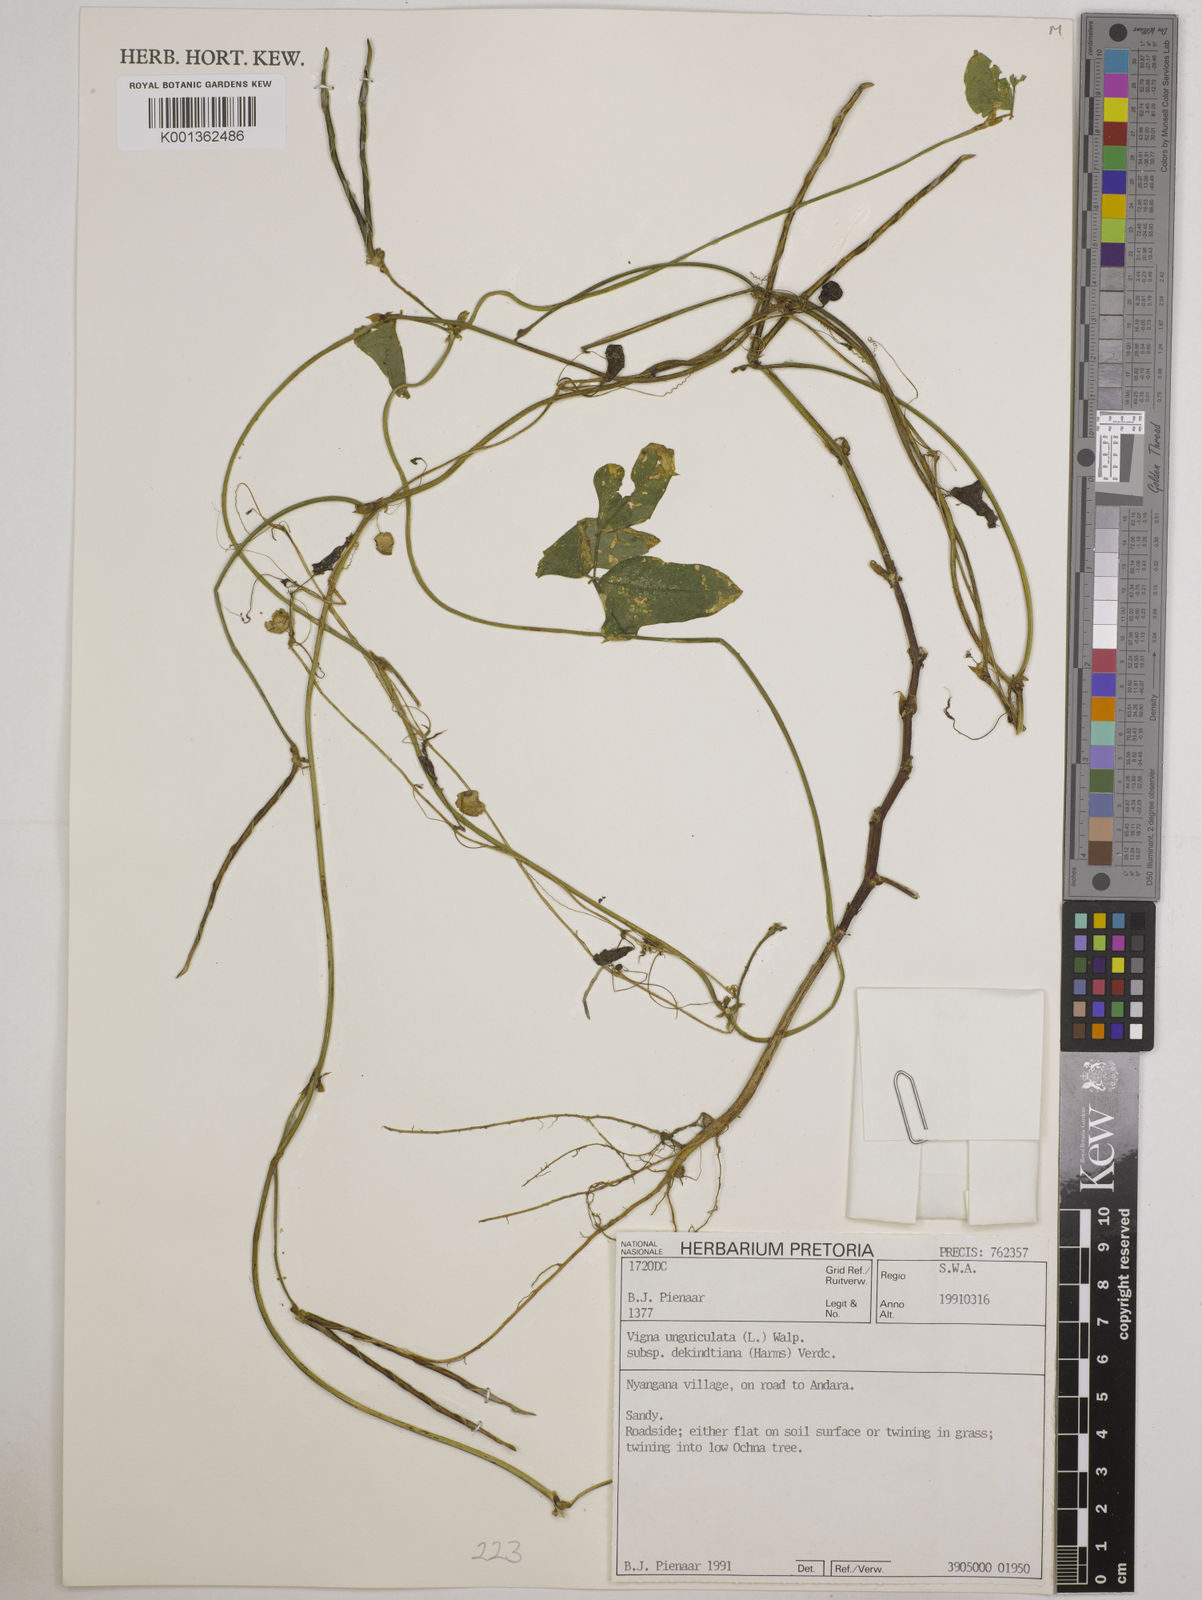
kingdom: Plantae
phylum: Tracheophyta
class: Magnoliopsida
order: Fabales
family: Fabaceae
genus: Vigna
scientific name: Vigna
